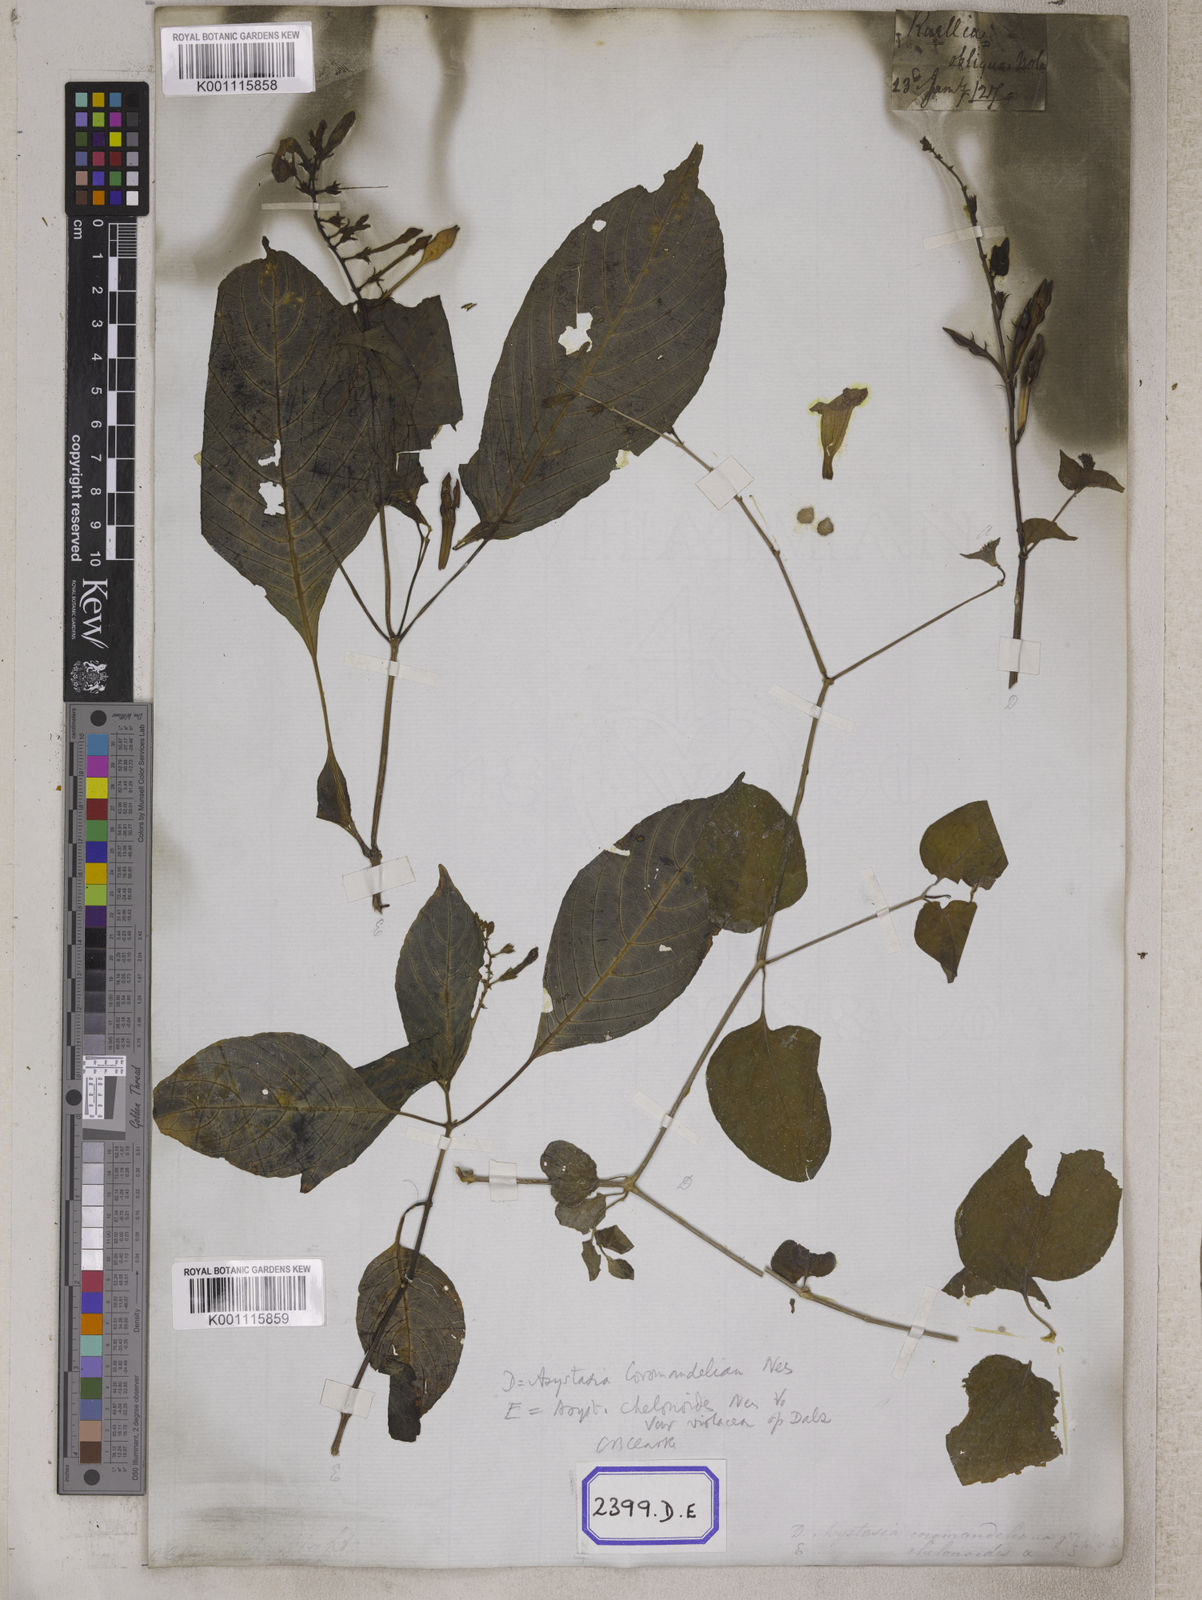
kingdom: Plantae
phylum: Tracheophyta
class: Magnoliopsida
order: Lamiales
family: Acanthaceae
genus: Asystasia
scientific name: Asystasia gangetica
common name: Chinese violet
